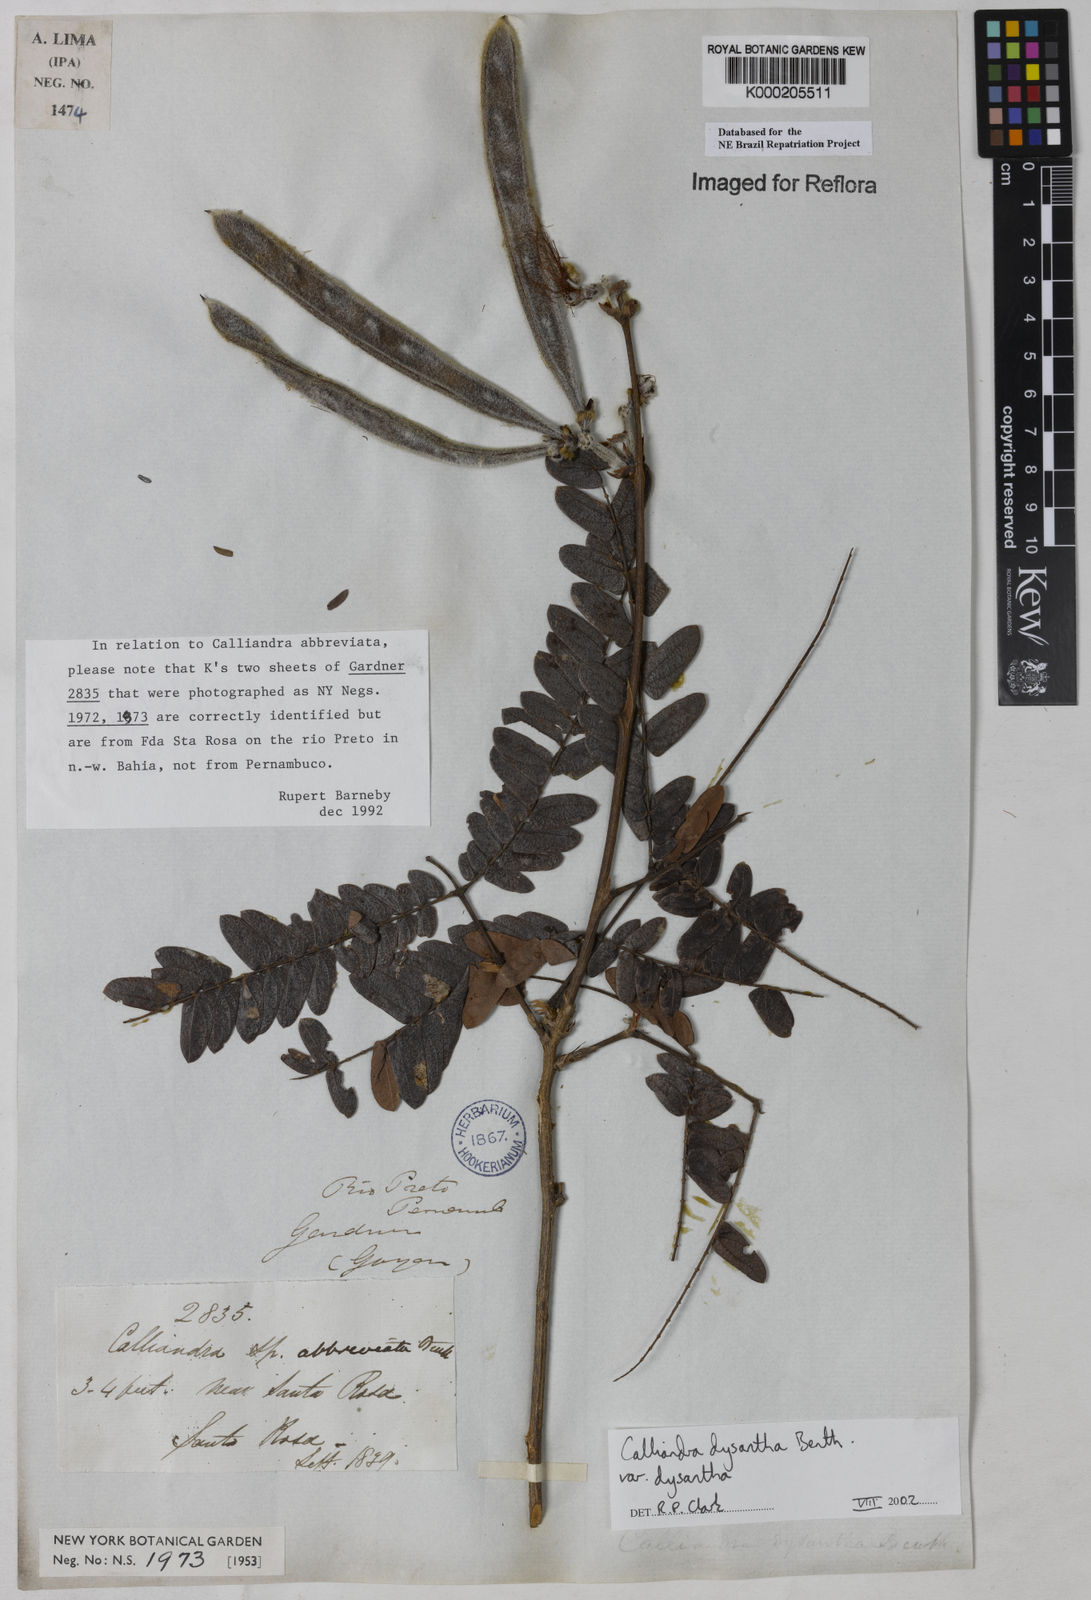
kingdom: Plantae
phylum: Tracheophyta
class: Magnoliopsida
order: Fabales
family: Fabaceae
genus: Calliandra
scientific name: Calliandra dysantha
